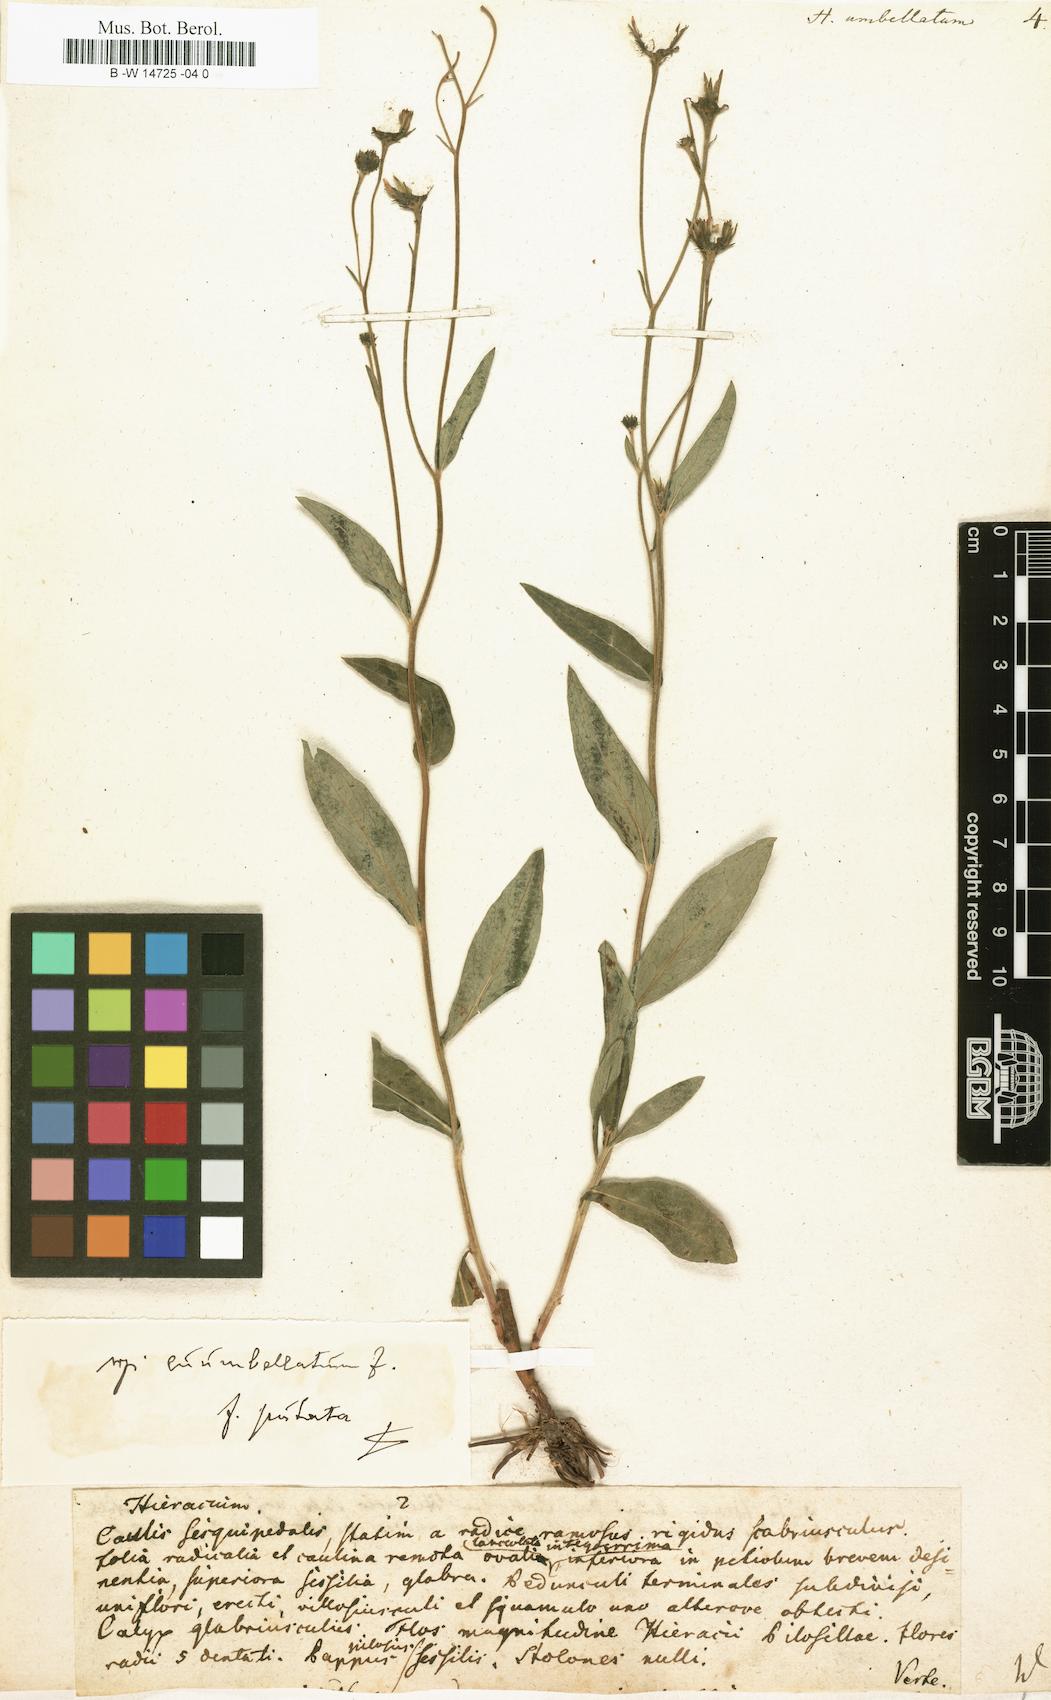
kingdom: Plantae
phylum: Tracheophyta
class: Magnoliopsida
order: Asterales
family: Asteraceae
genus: Hieracium
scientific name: Hieracium umbellatum
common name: Northern hawkweed
